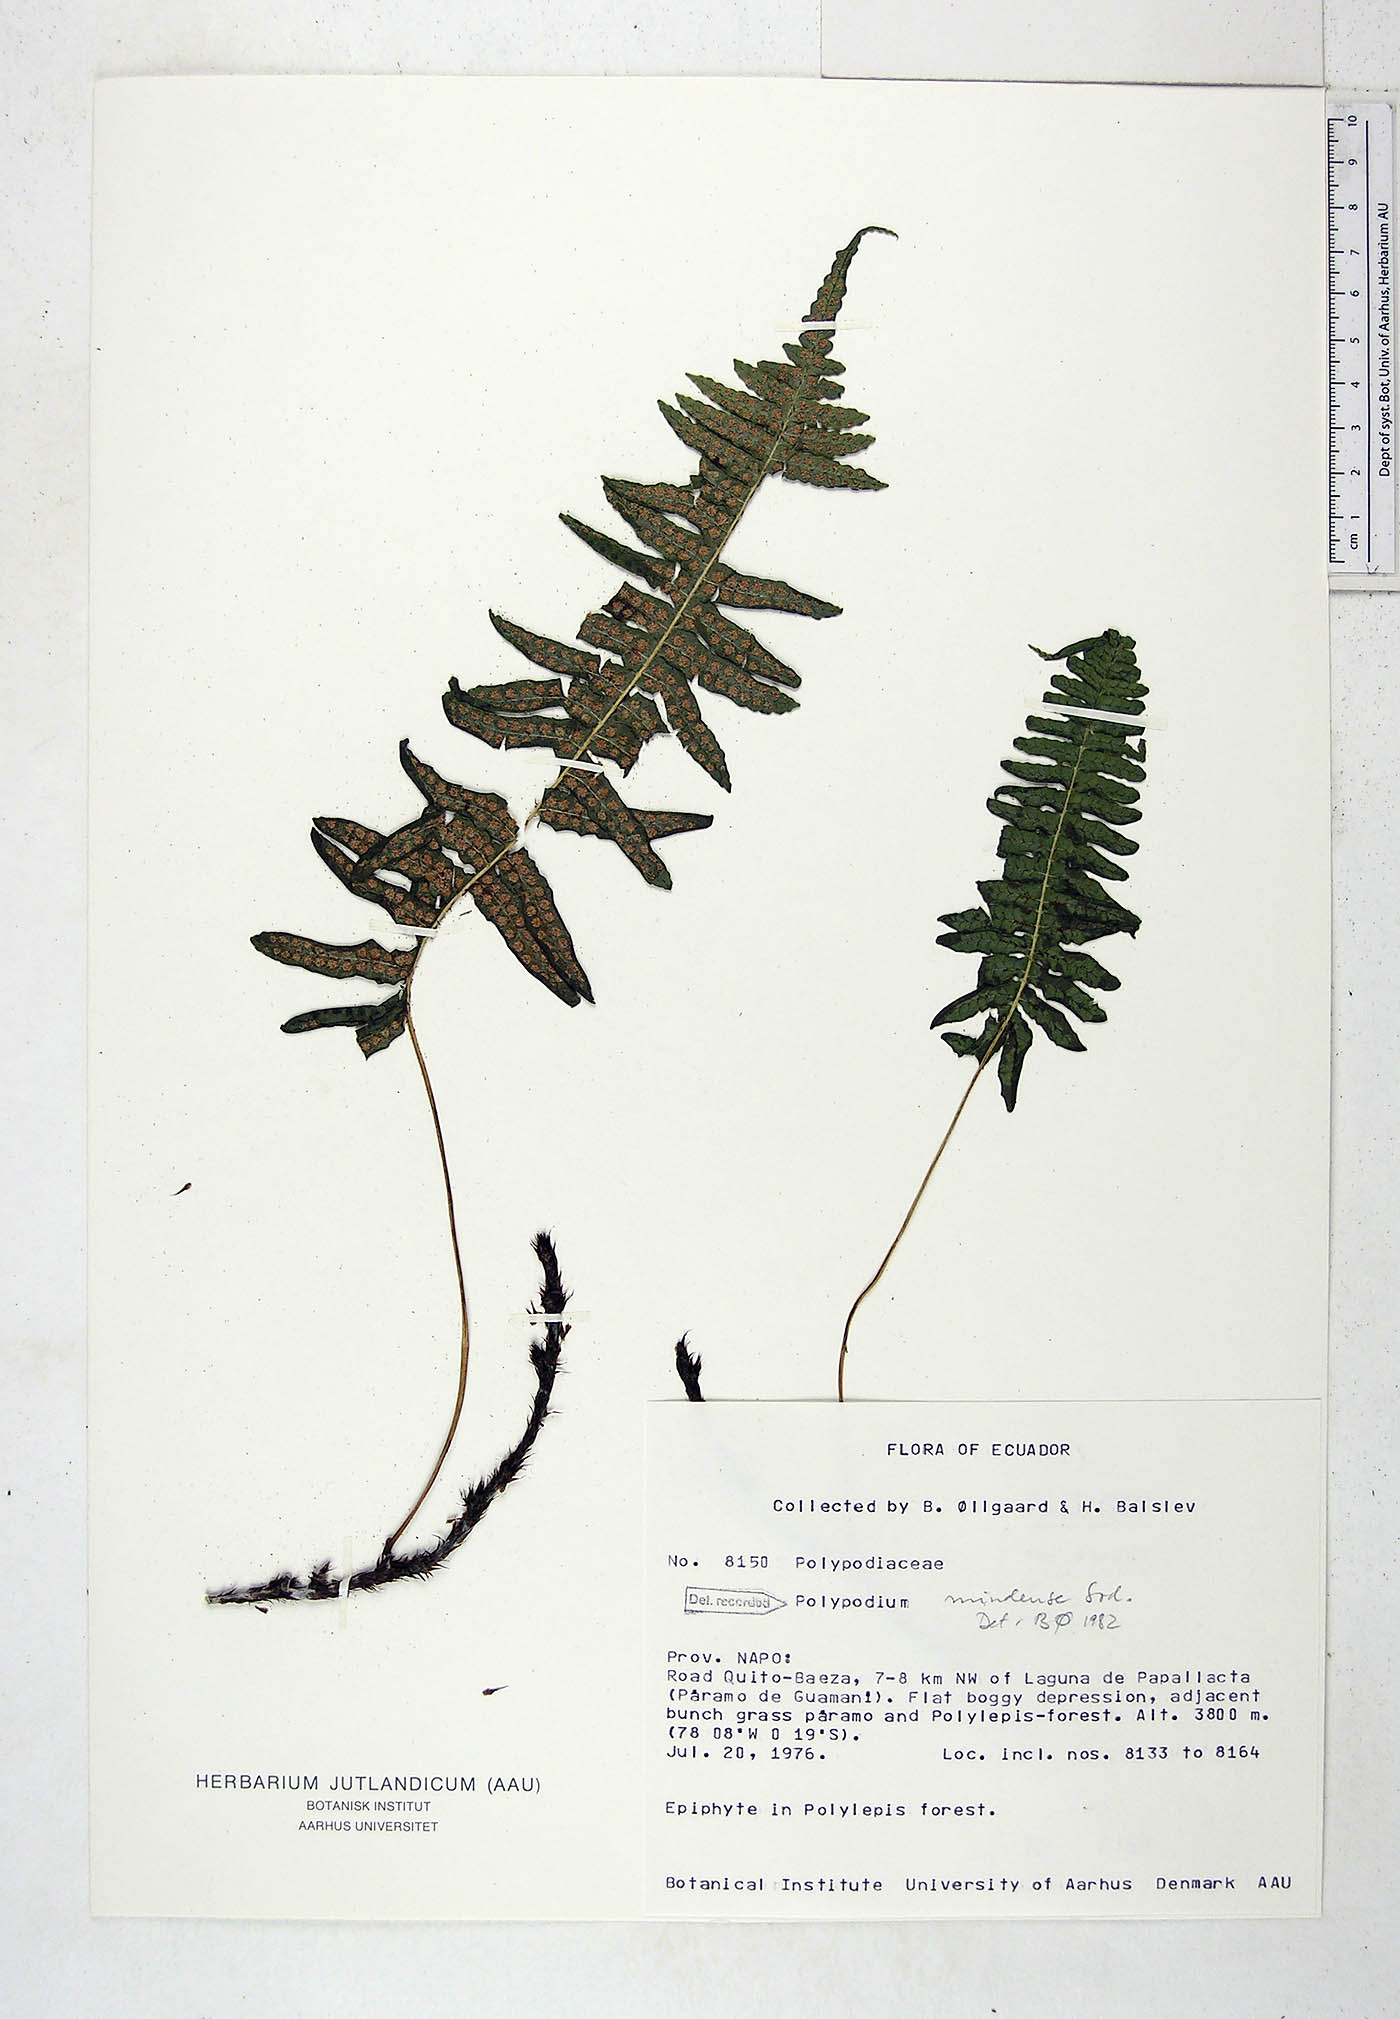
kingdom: Plantae
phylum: Tracheophyta
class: Polypodiopsida
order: Polypodiales
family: Polypodiaceae
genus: Serpocaulon
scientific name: Serpocaulon eleutherophlebium
